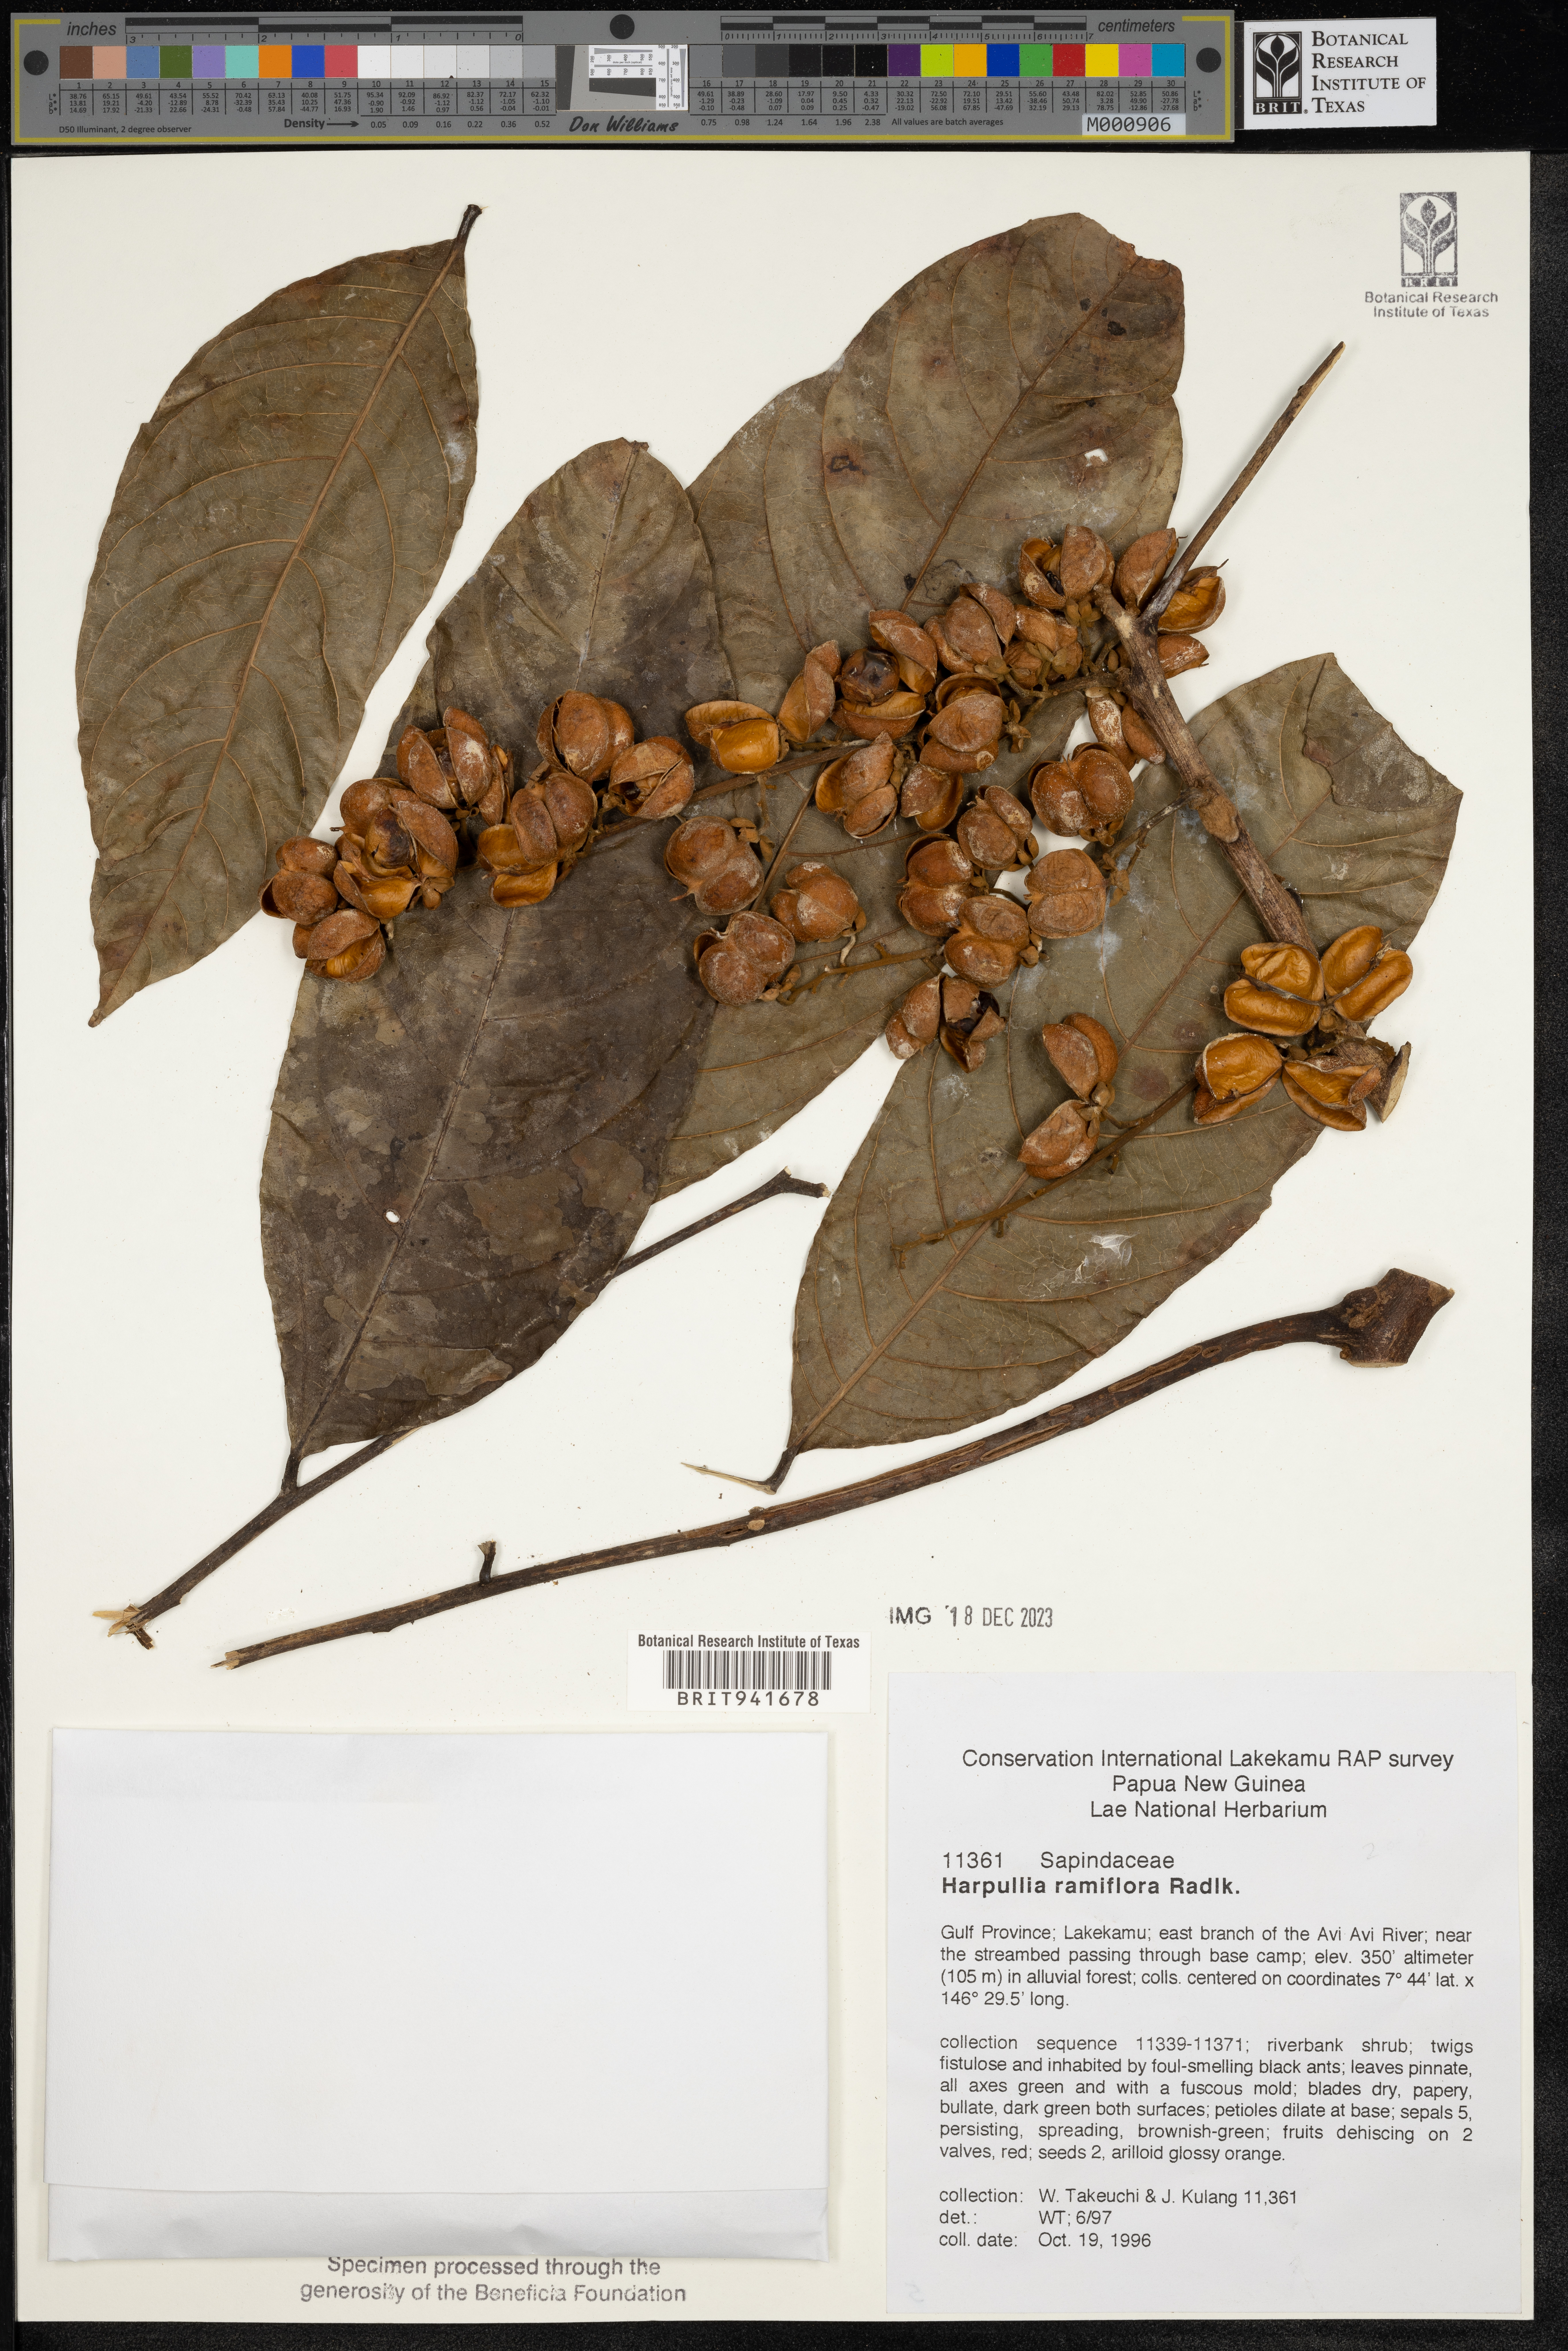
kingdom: Plantae
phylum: Tracheophyta
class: Magnoliopsida
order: Sapindales
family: Sapindaceae
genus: Harpullia
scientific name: Harpullia
